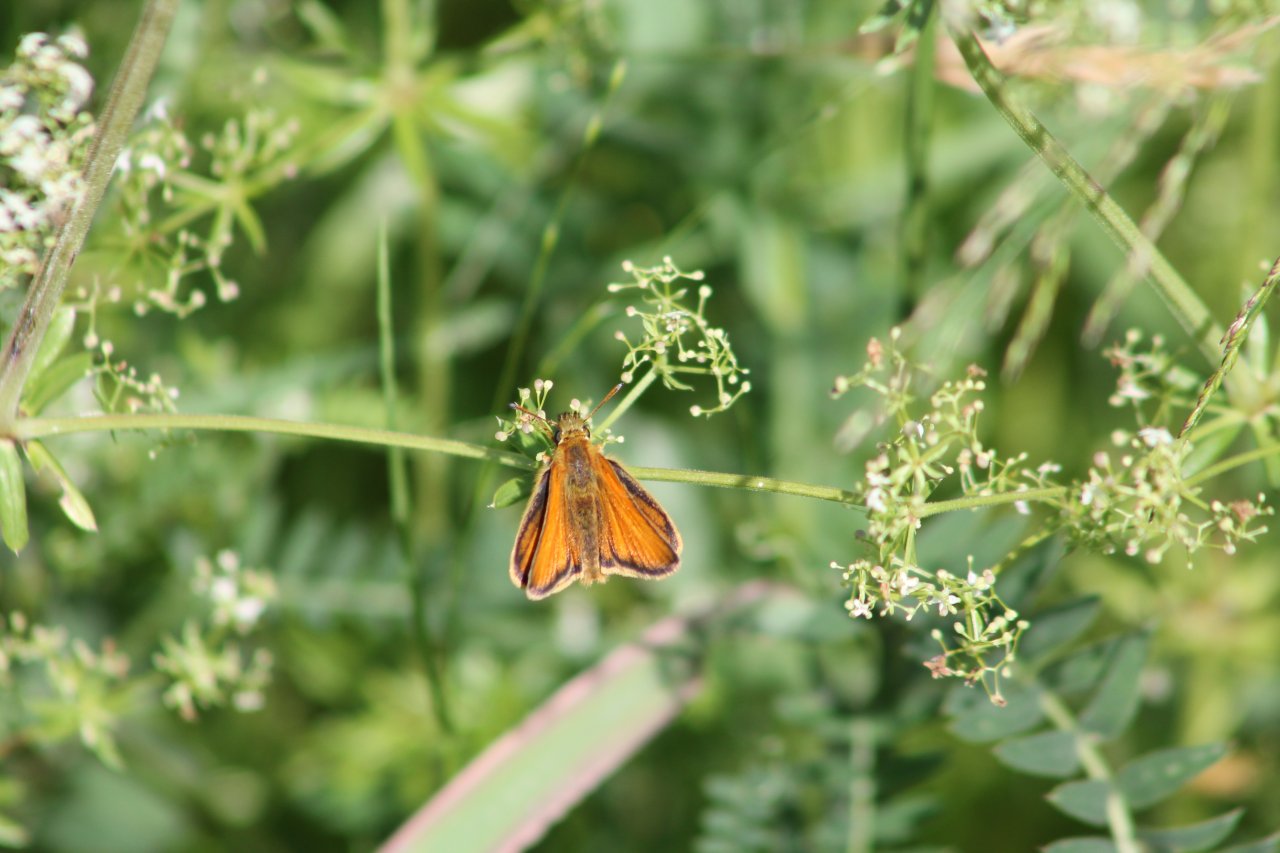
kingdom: Animalia
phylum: Arthropoda
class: Insecta
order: Lepidoptera
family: Hesperiidae
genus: Atrytone
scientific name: Atrytone delaware
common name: Delaware Skipper
